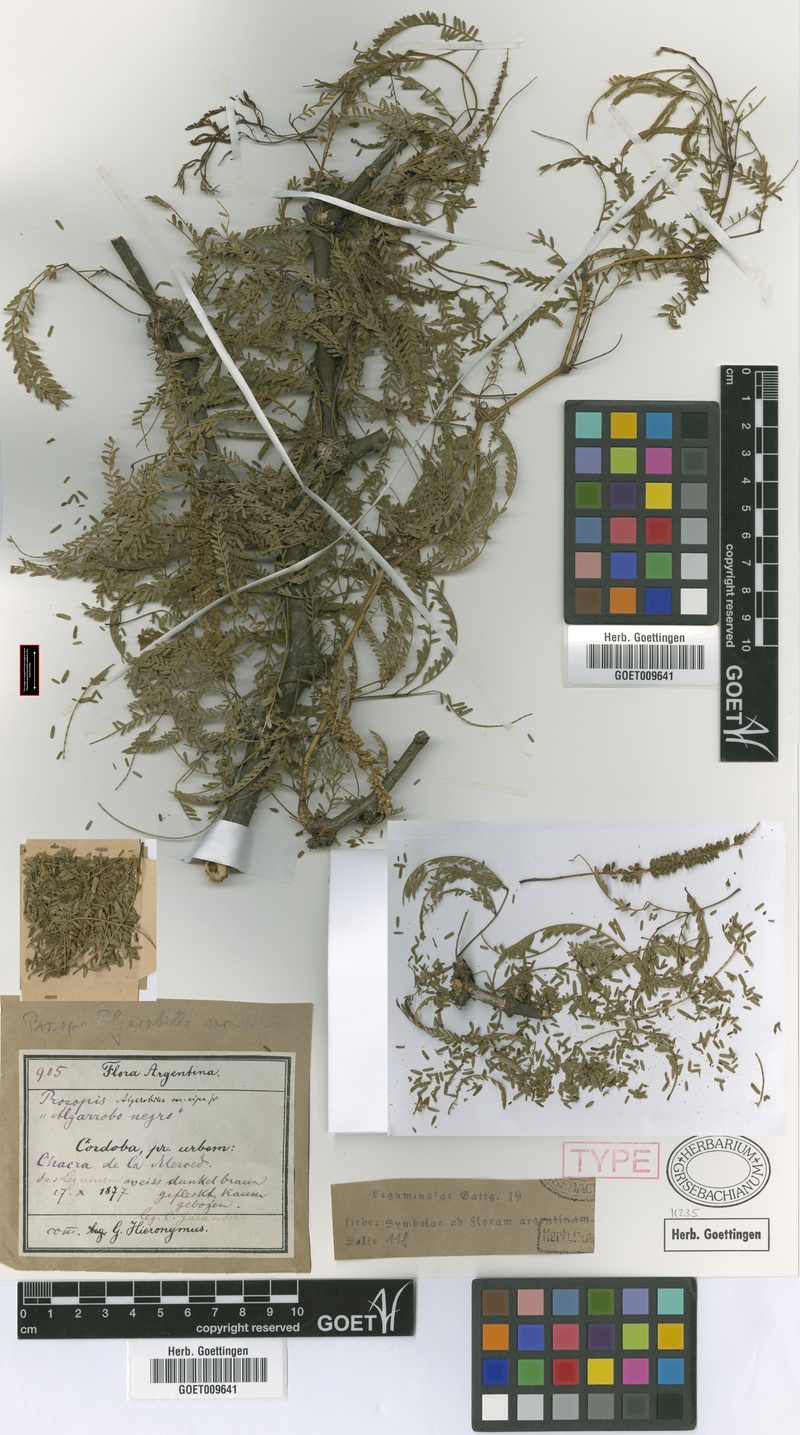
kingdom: Plantae
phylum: Tracheophyta
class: Magnoliopsida
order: Fabales
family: Fabaceae
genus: Prosopis
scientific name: Prosopis nigra
